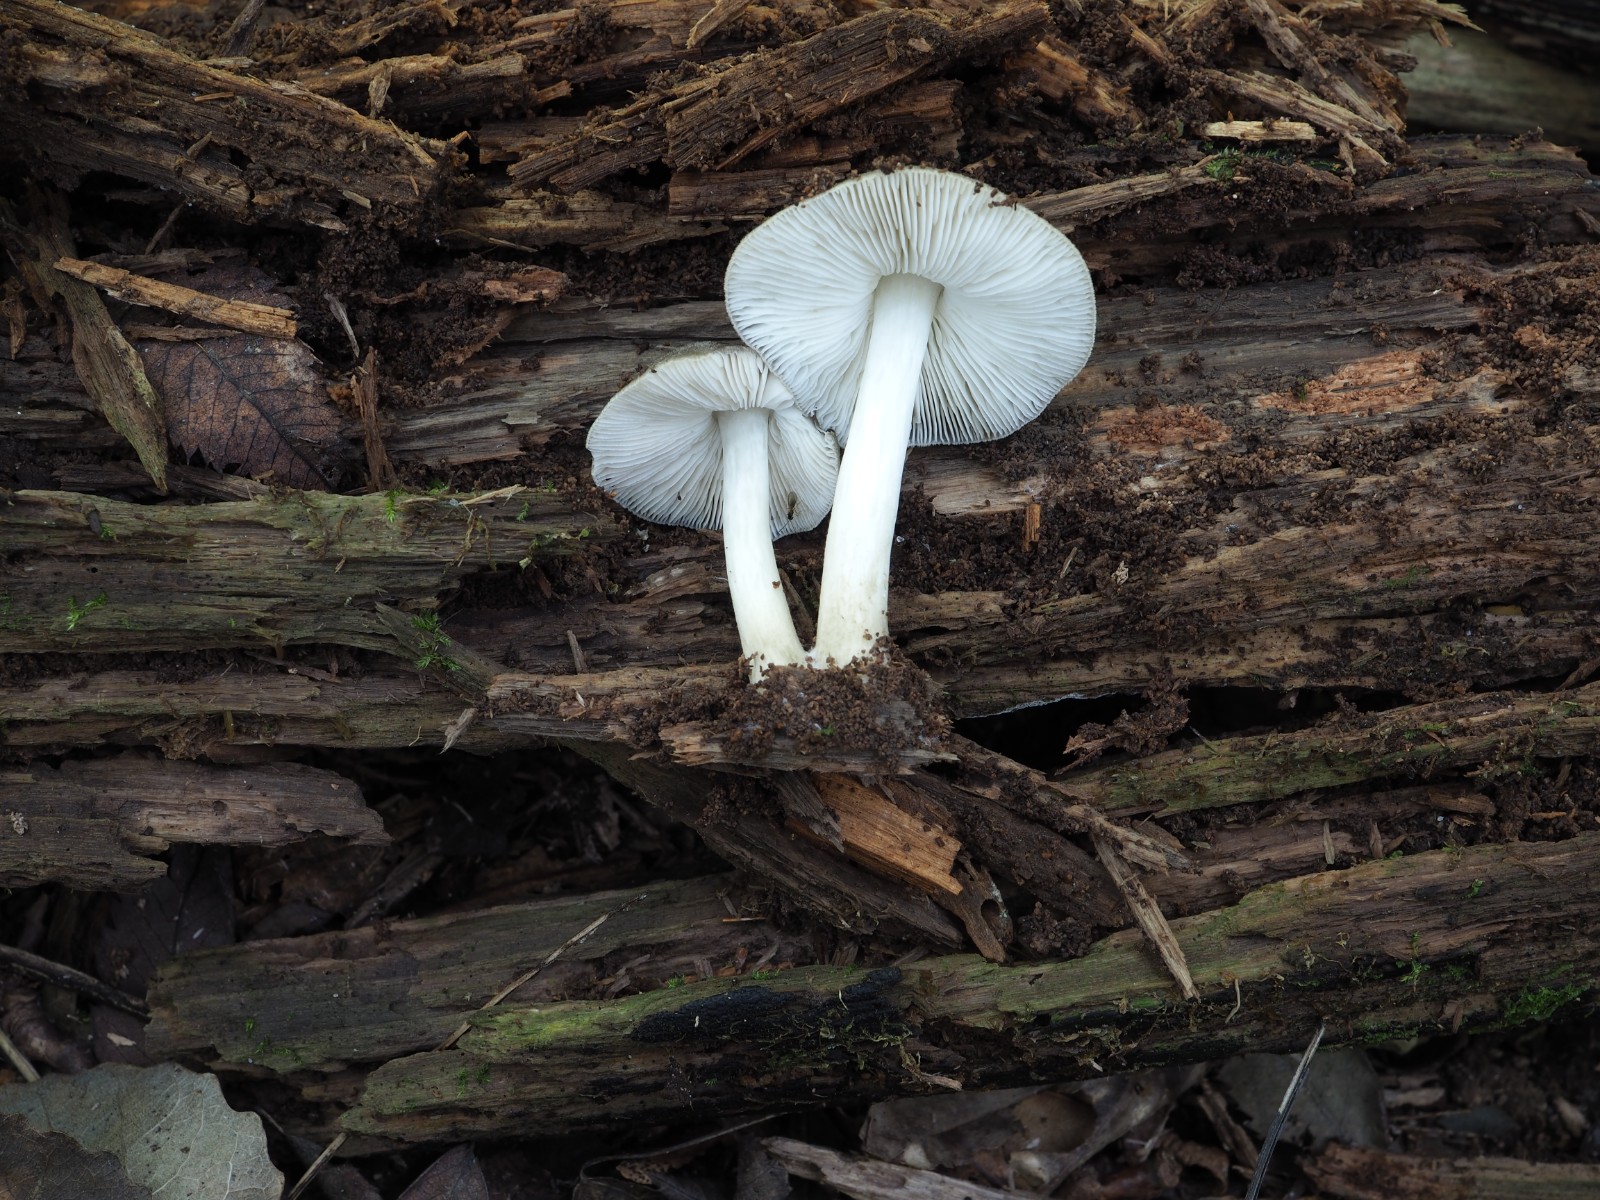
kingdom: Fungi
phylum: Basidiomycota
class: Agaricomycetes
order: Agaricales
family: Pluteaceae
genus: Pluteus
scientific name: Pluteus salicinus
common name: stiv skærmhat
